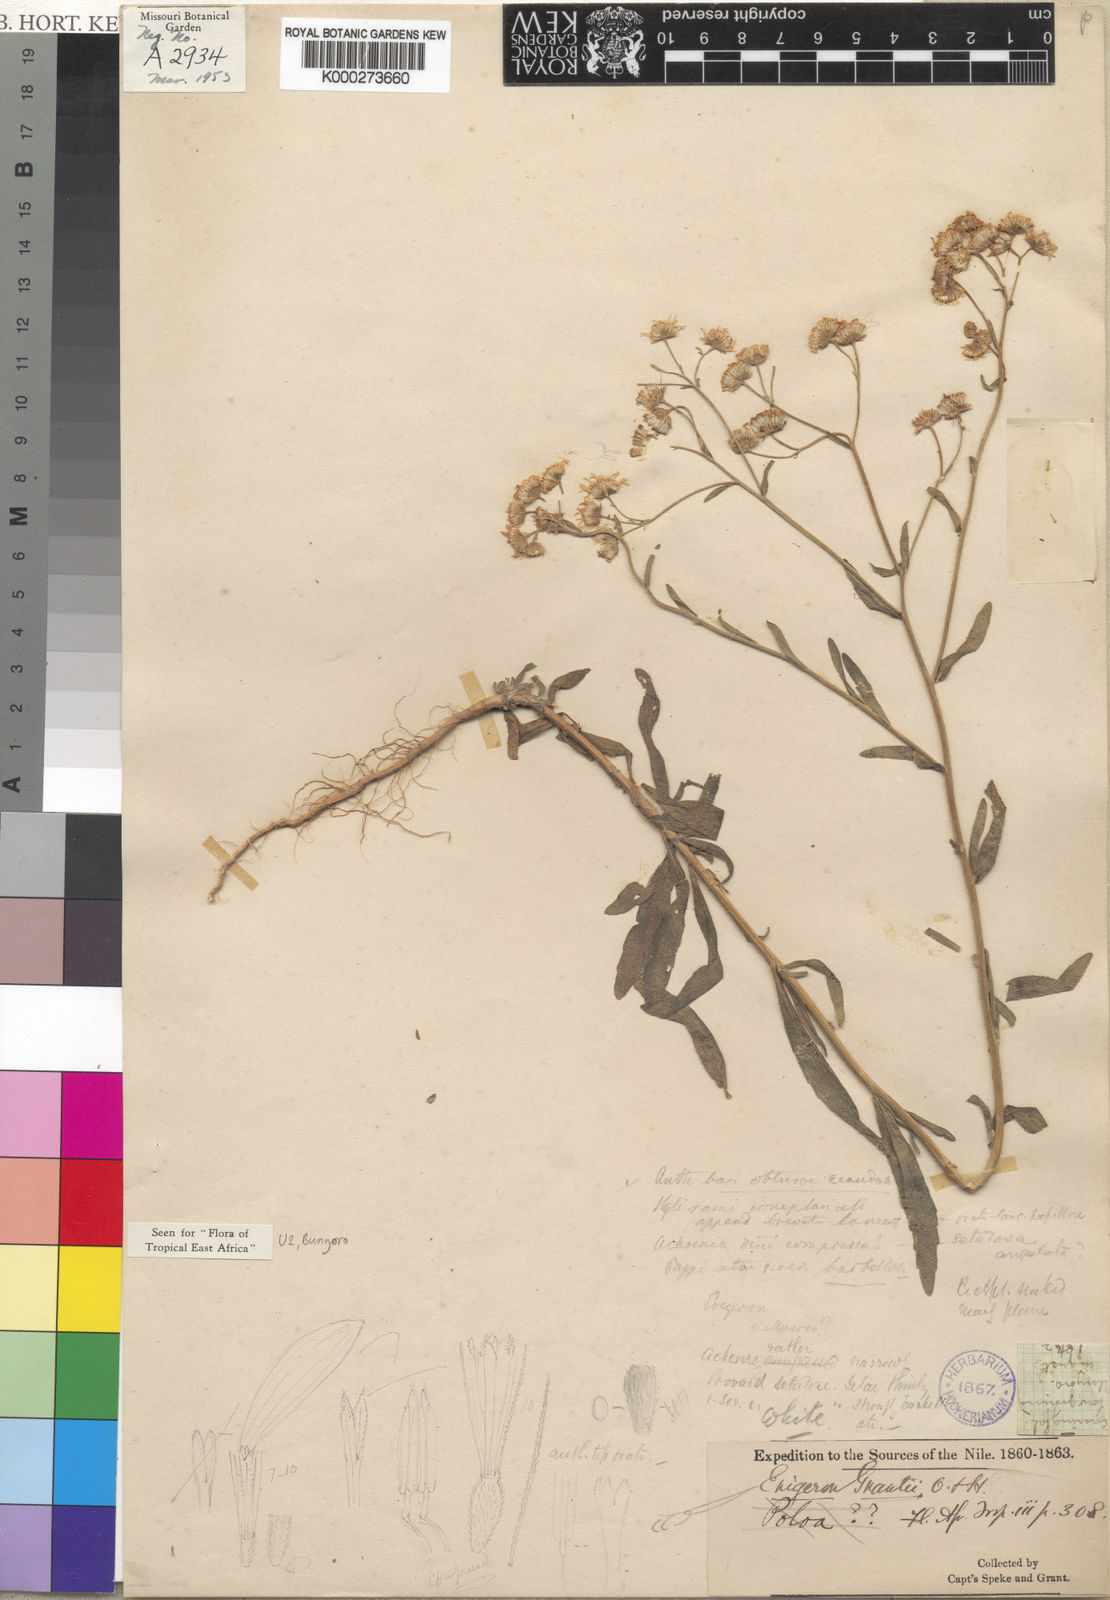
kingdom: Plantae
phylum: Tracheophyta
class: Magnoliopsida
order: Asterales
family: Asteraceae
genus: Felicia
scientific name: Felicia grantii
